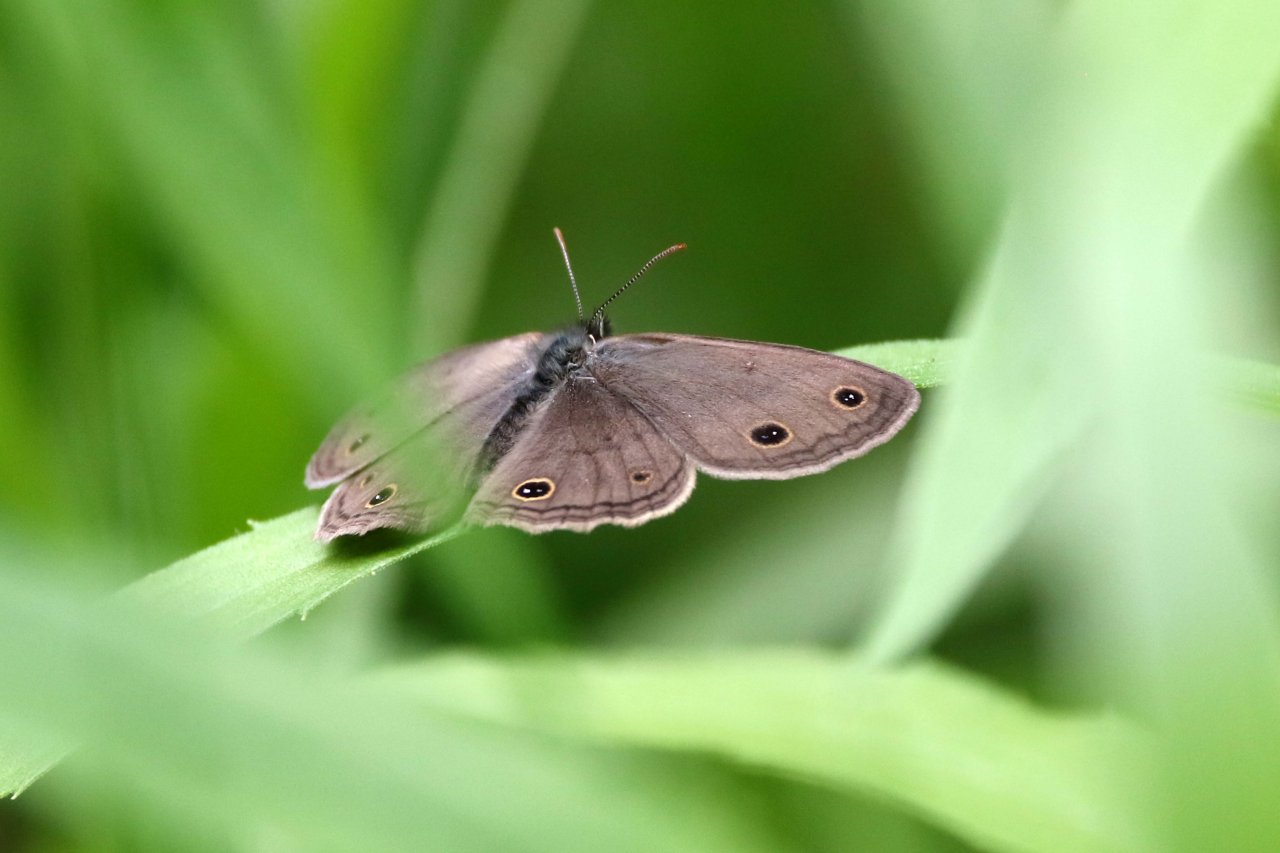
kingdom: Animalia
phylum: Arthropoda
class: Insecta
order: Lepidoptera
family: Nymphalidae
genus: Euptychia
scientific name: Euptychia cymela
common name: Little Wood Satyr
